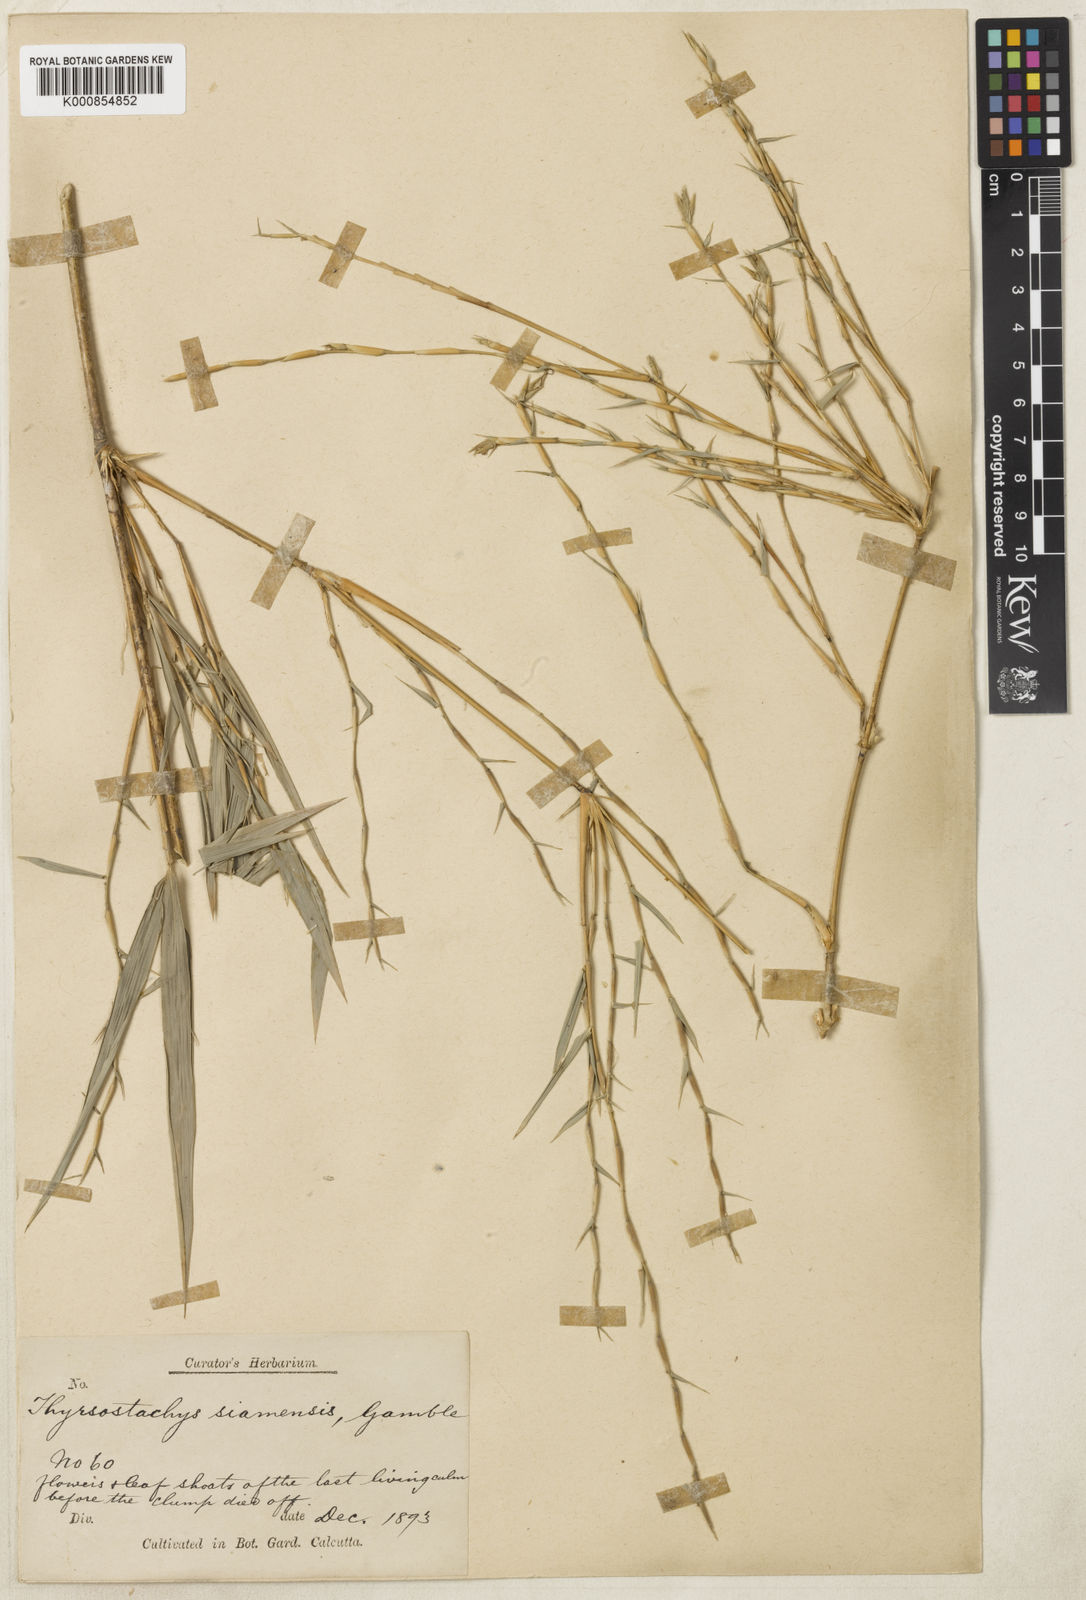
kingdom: Plantae
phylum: Tracheophyta
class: Liliopsida
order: Poales
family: Poaceae
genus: Thyrsostachys
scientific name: Thyrsostachys siamensis
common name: Thailand bamboo
